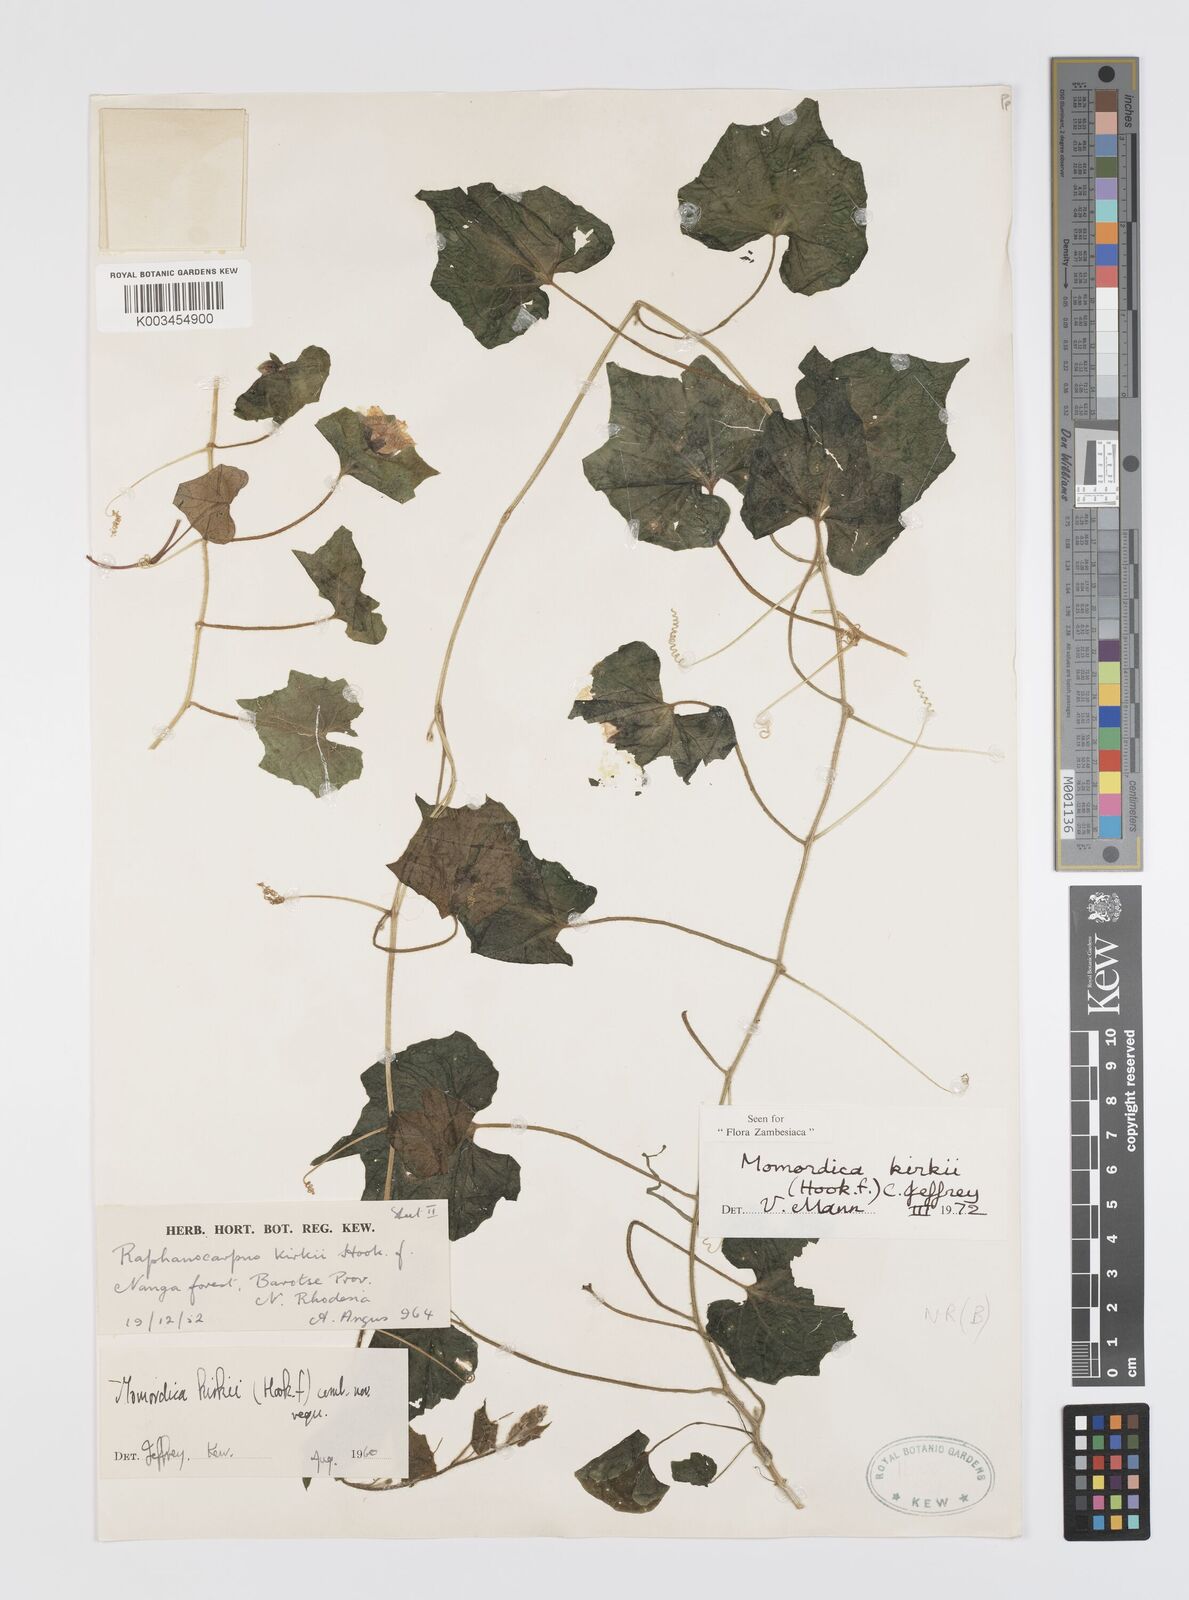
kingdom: Plantae
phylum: Tracheophyta
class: Magnoliopsida
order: Cucurbitales
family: Cucurbitaceae
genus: Momordica
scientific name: Momordica kirkii
